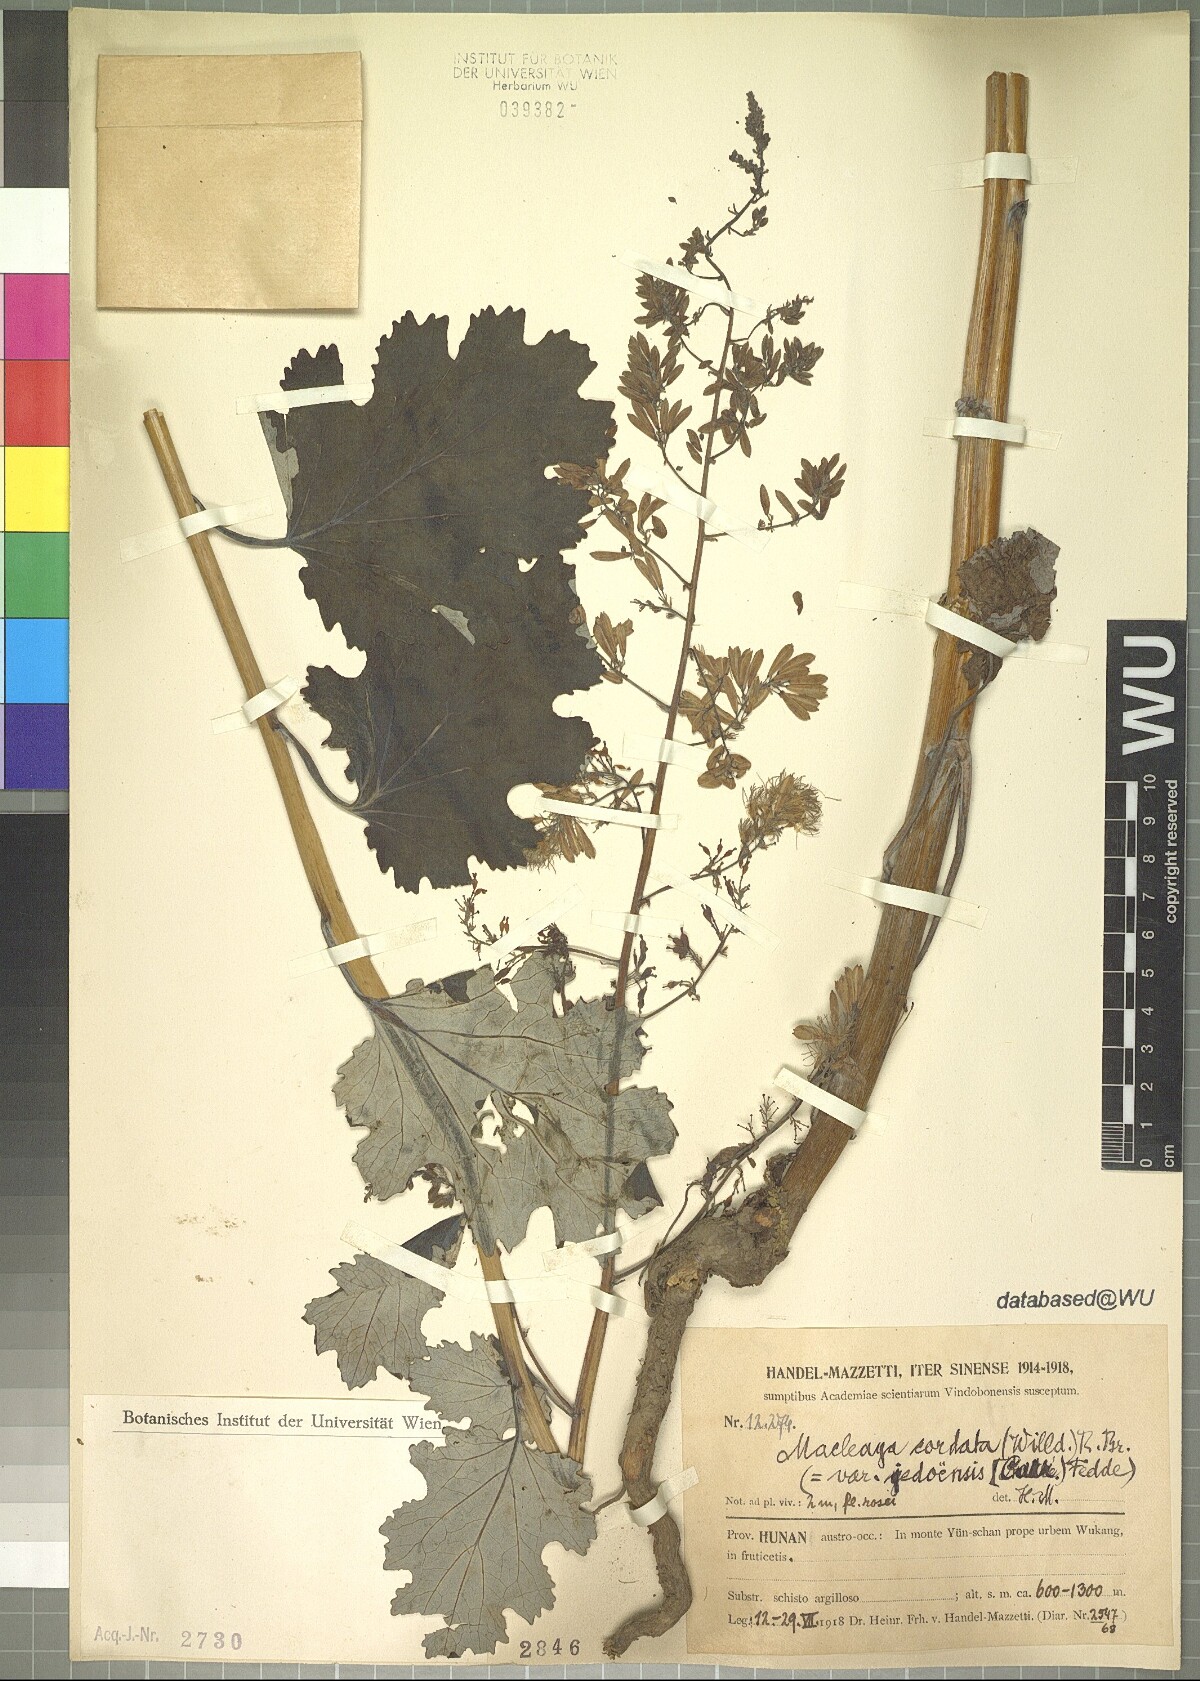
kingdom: Plantae
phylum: Tracheophyta
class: Magnoliopsida
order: Ranunculales
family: Papaveraceae
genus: Macleaya
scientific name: Macleaya cordata
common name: Plume poppy
